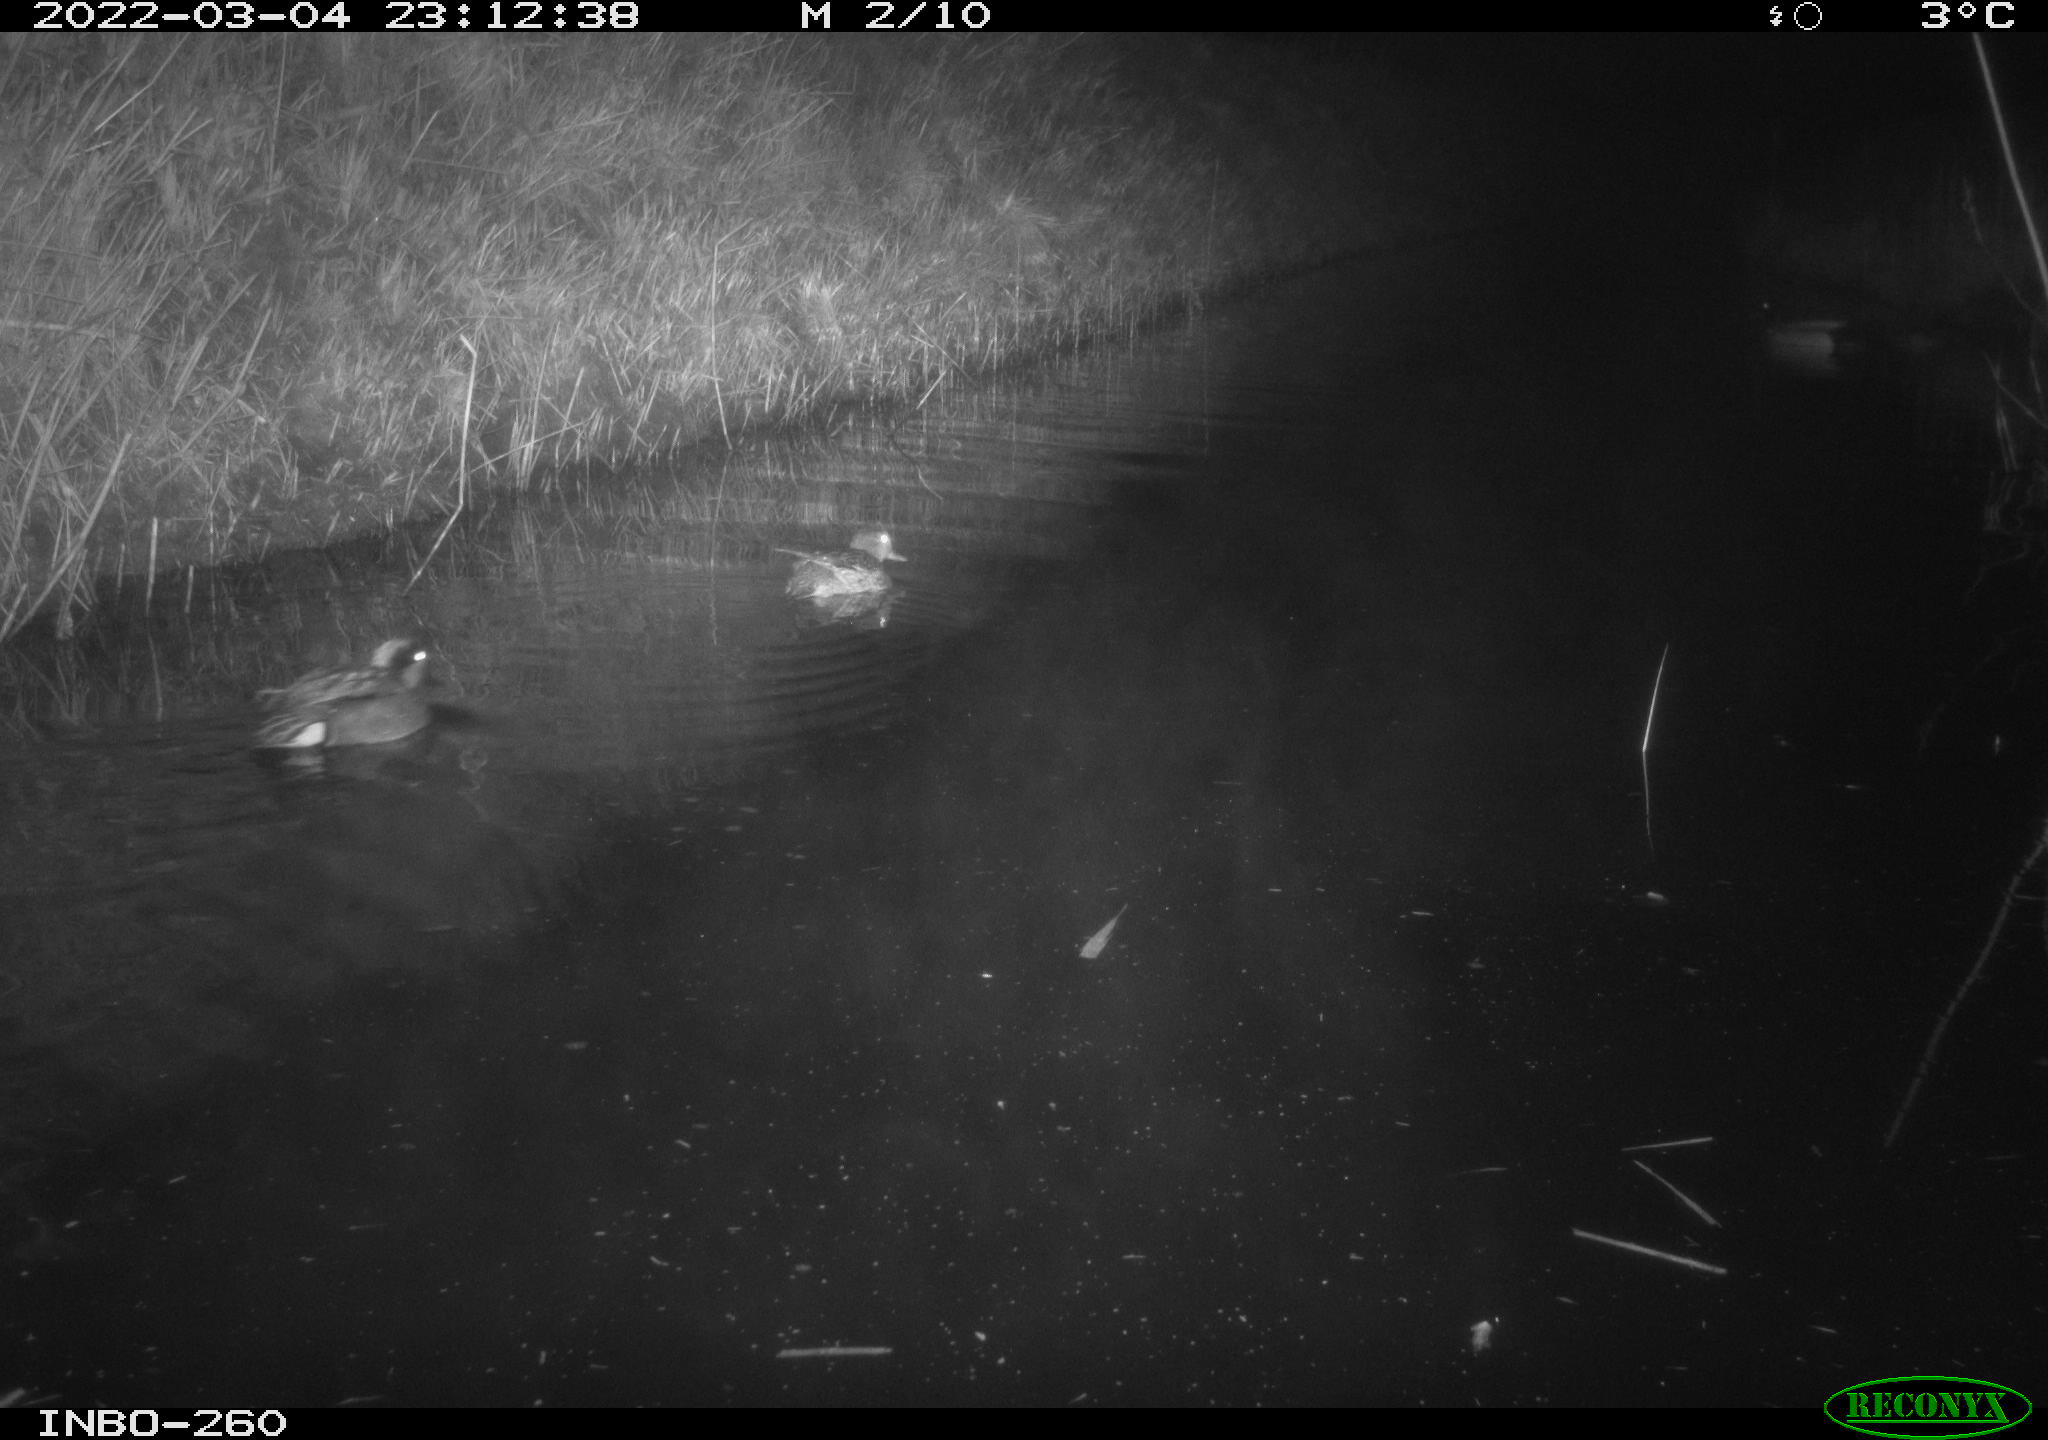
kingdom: Animalia
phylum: Chordata
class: Aves
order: Anseriformes
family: Anatidae
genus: Anas
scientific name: Anas platyrhynchos
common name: Mallard
